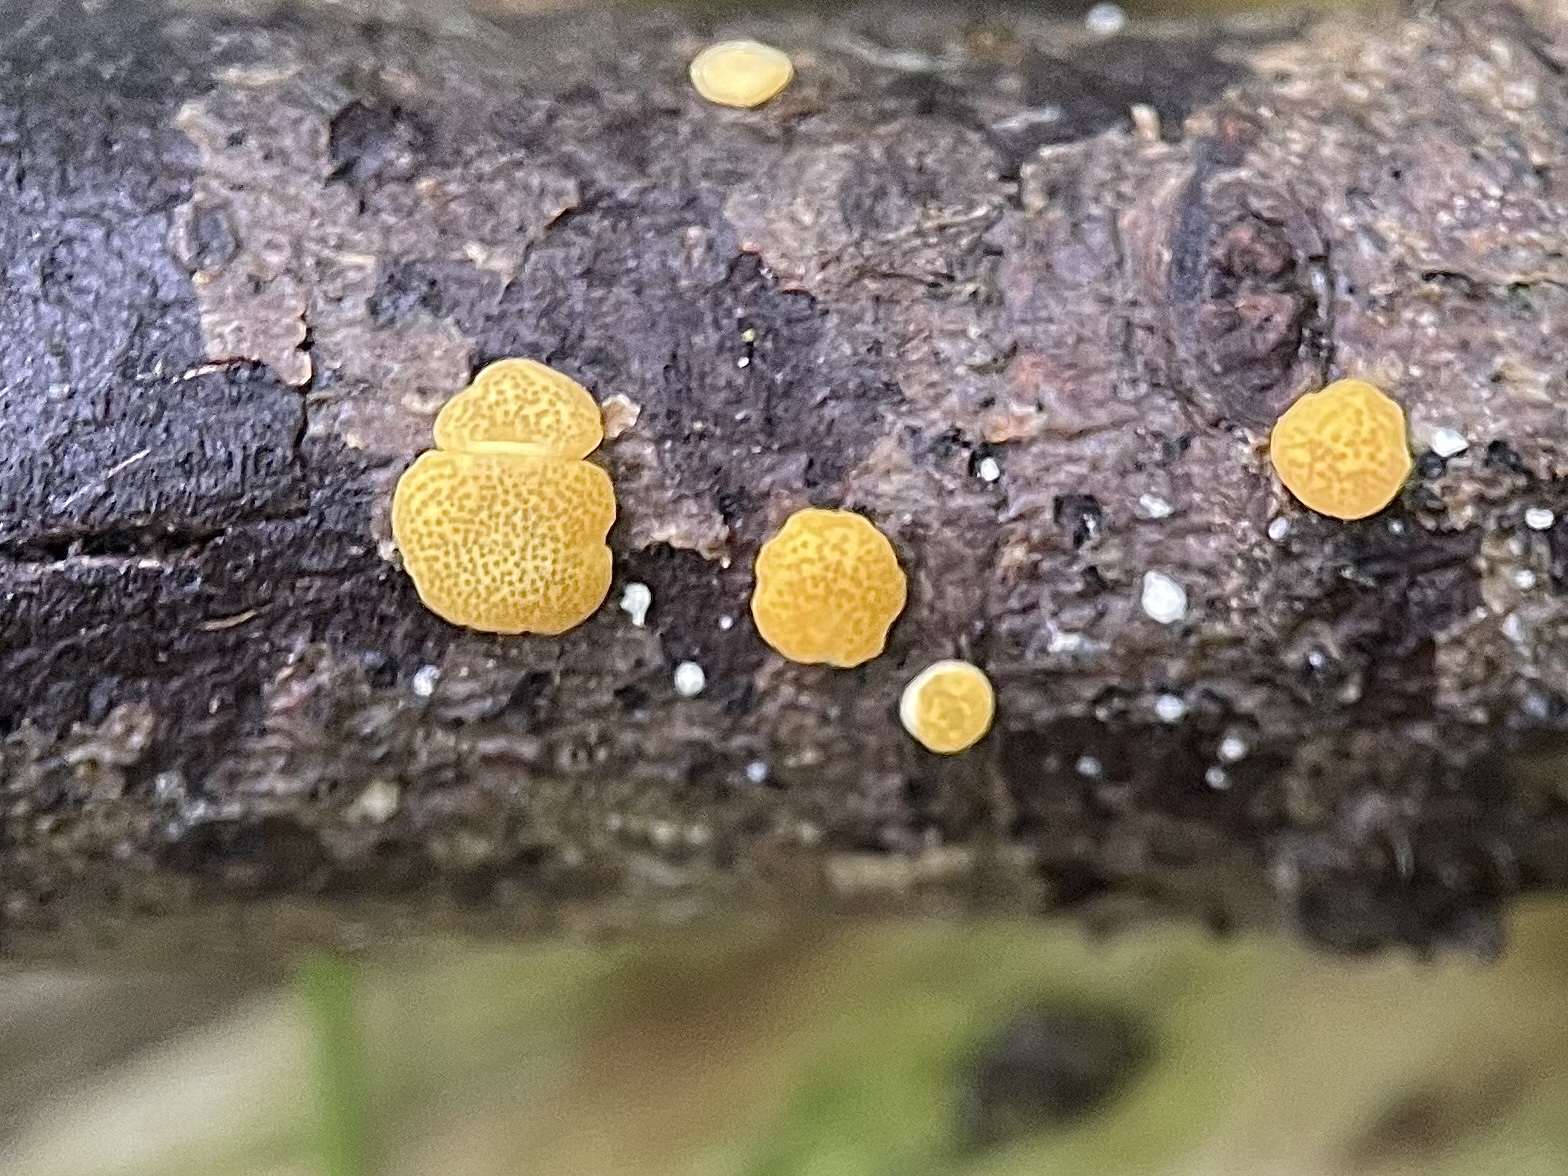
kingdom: Fungi
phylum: Ascomycota
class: Sordariomycetes
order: Hypocreales
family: Hypocreaceae
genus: Trichoderma
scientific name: Trichoderma aureoviride
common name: æggegul kødkerne
